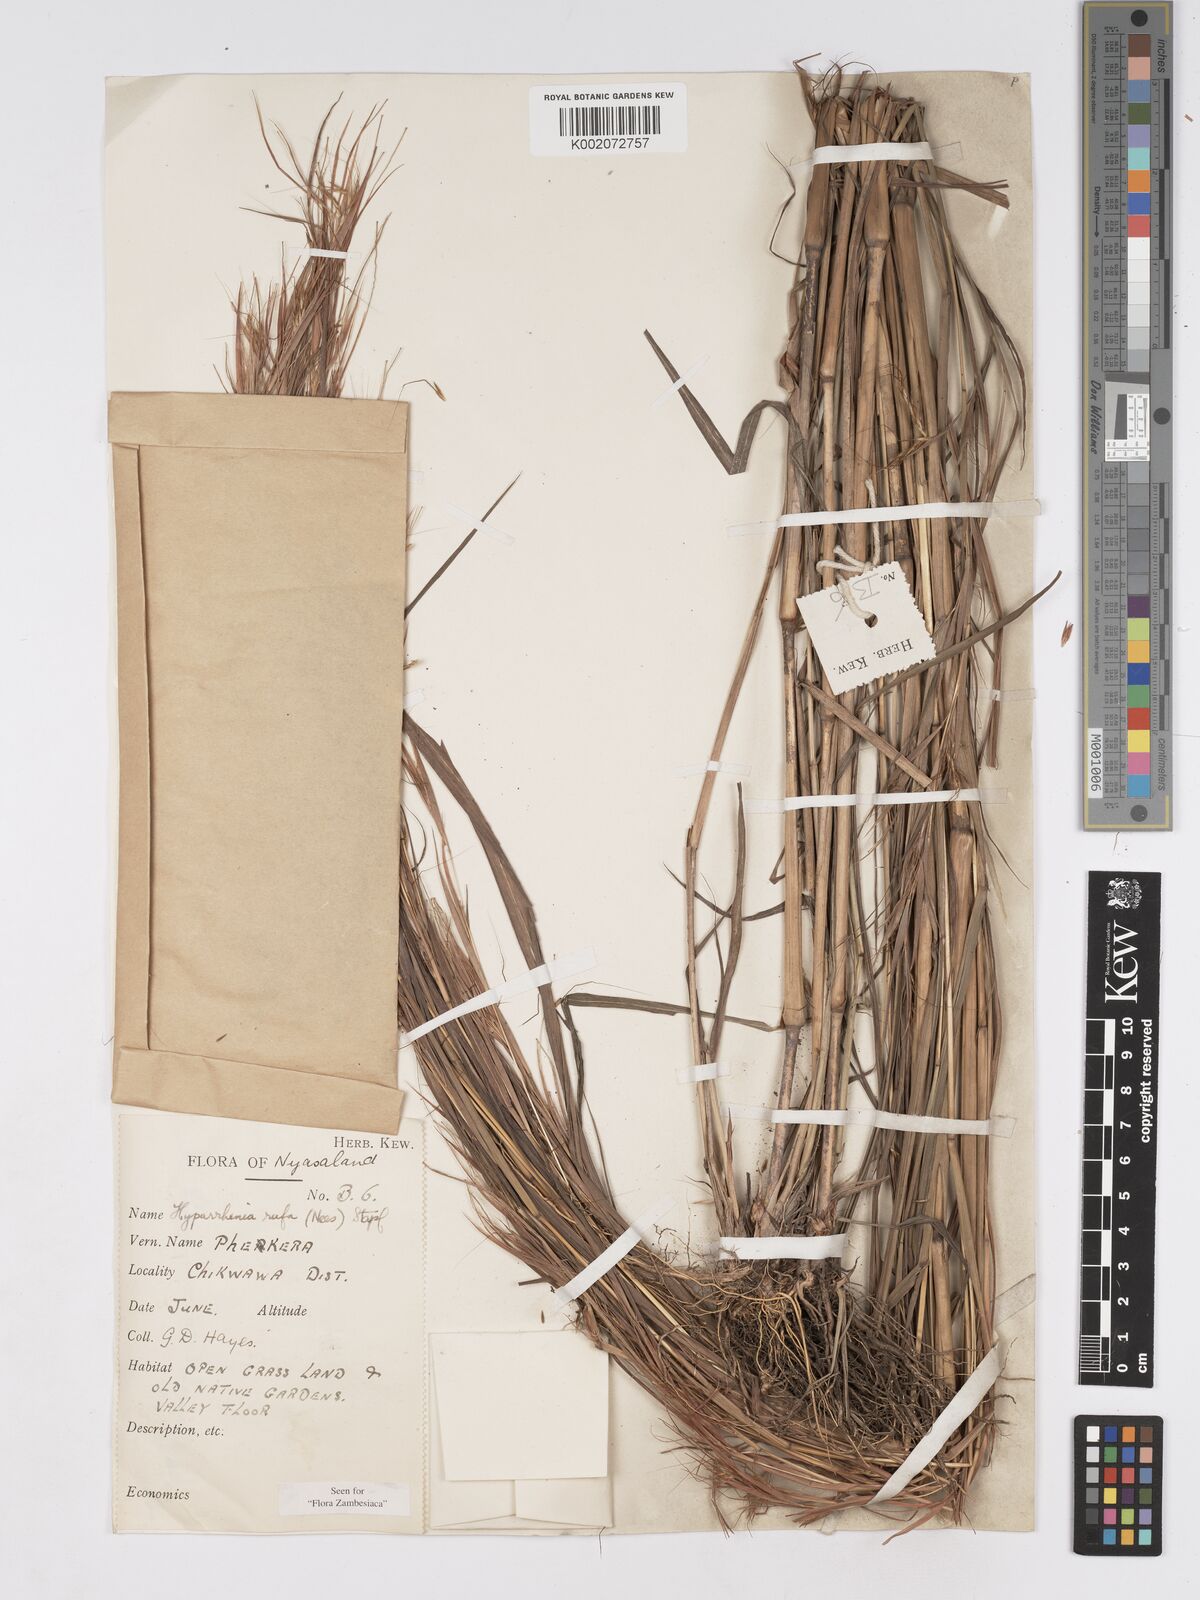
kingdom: Plantae
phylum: Tracheophyta
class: Liliopsida
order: Poales
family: Poaceae
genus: Hyparrhenia
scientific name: Hyparrhenia rufa
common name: Jaraguagrass
